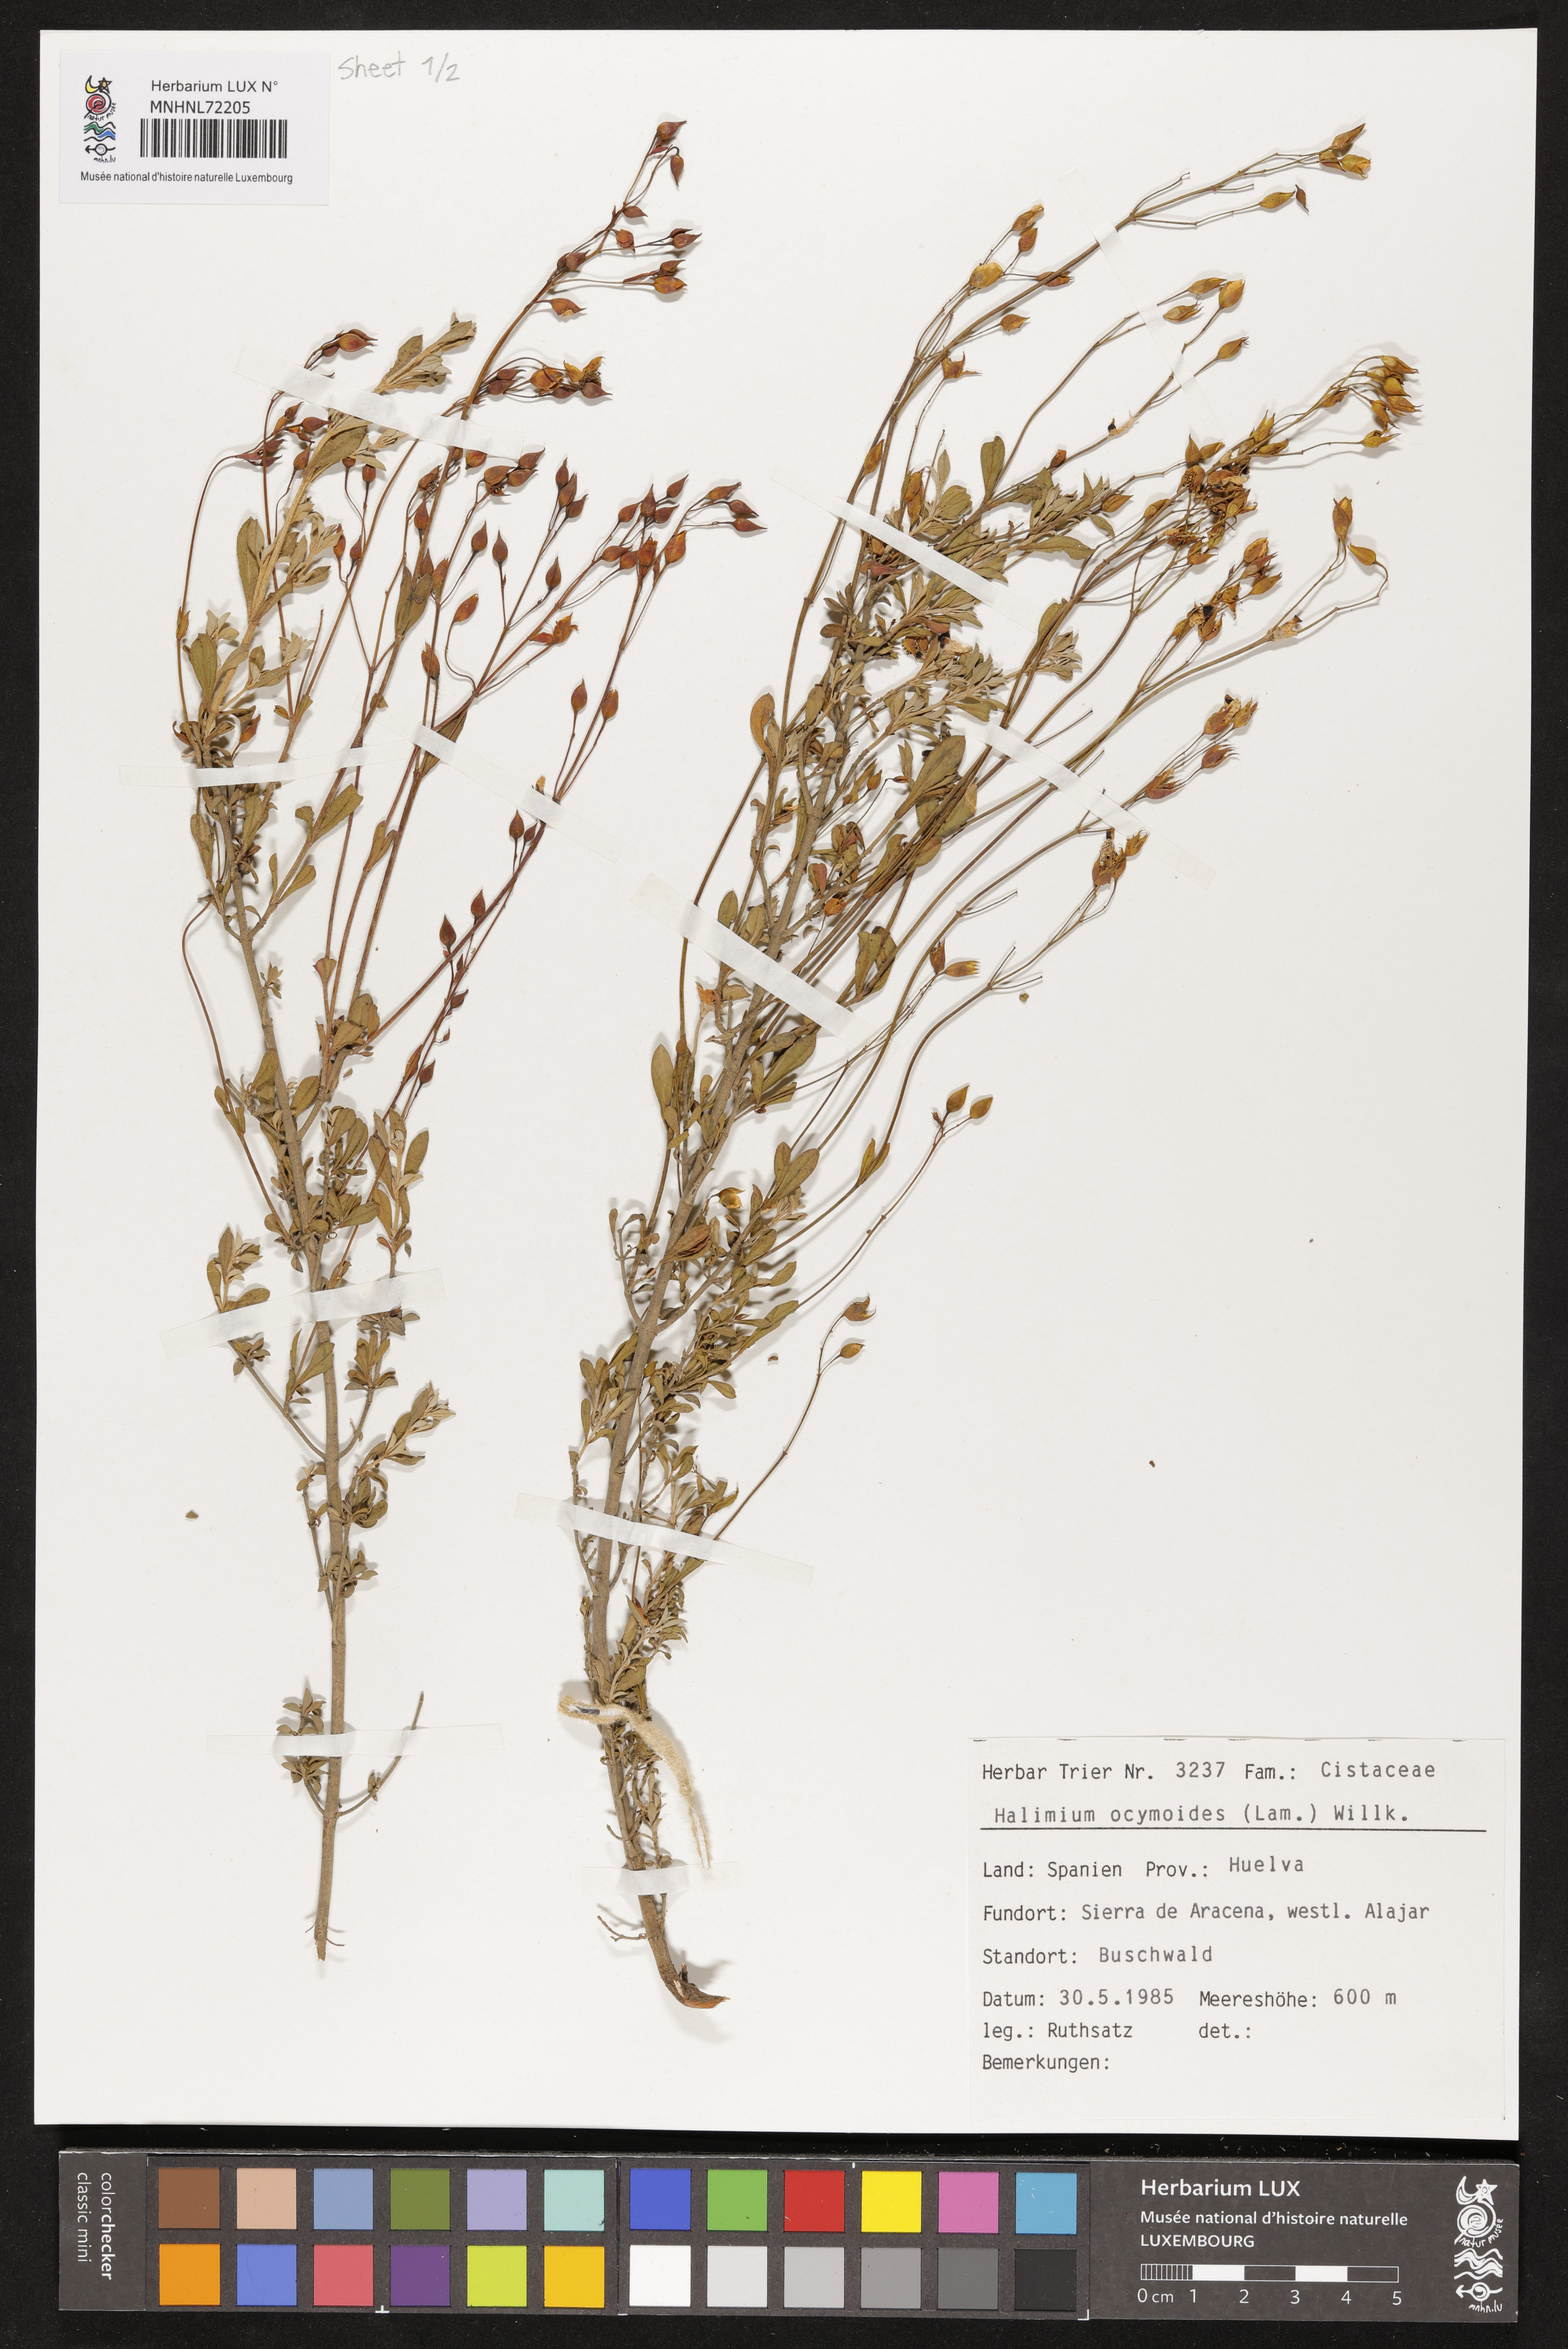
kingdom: Plantae
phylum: Tracheophyta
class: Magnoliopsida
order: Malvales
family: Cistaceae
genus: Halimium
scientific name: Halimium ocymoides
